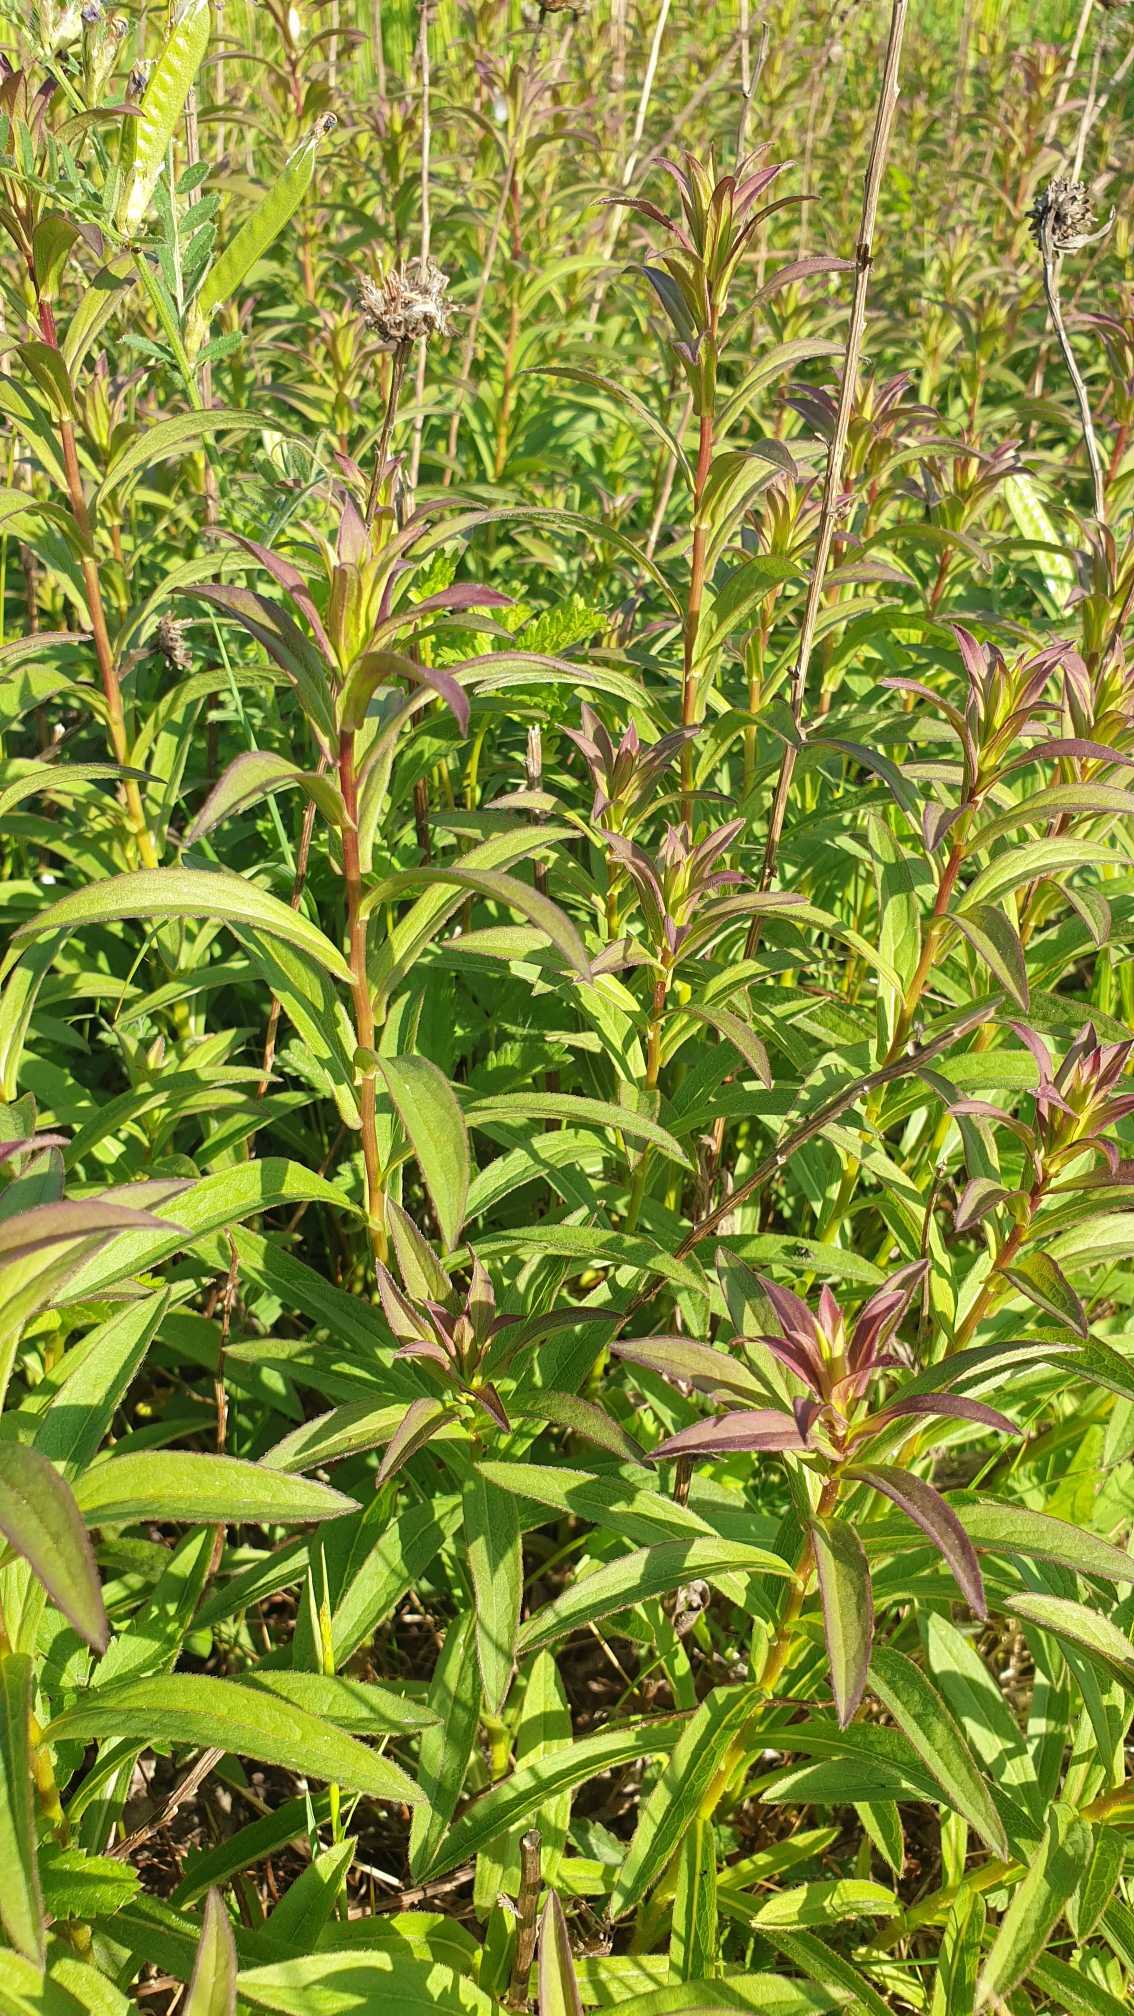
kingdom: Plantae
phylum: Tracheophyta
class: Magnoliopsida
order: Asterales
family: Asteraceae
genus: Pentanema
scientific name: Pentanema salicinum
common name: Pile-alant
